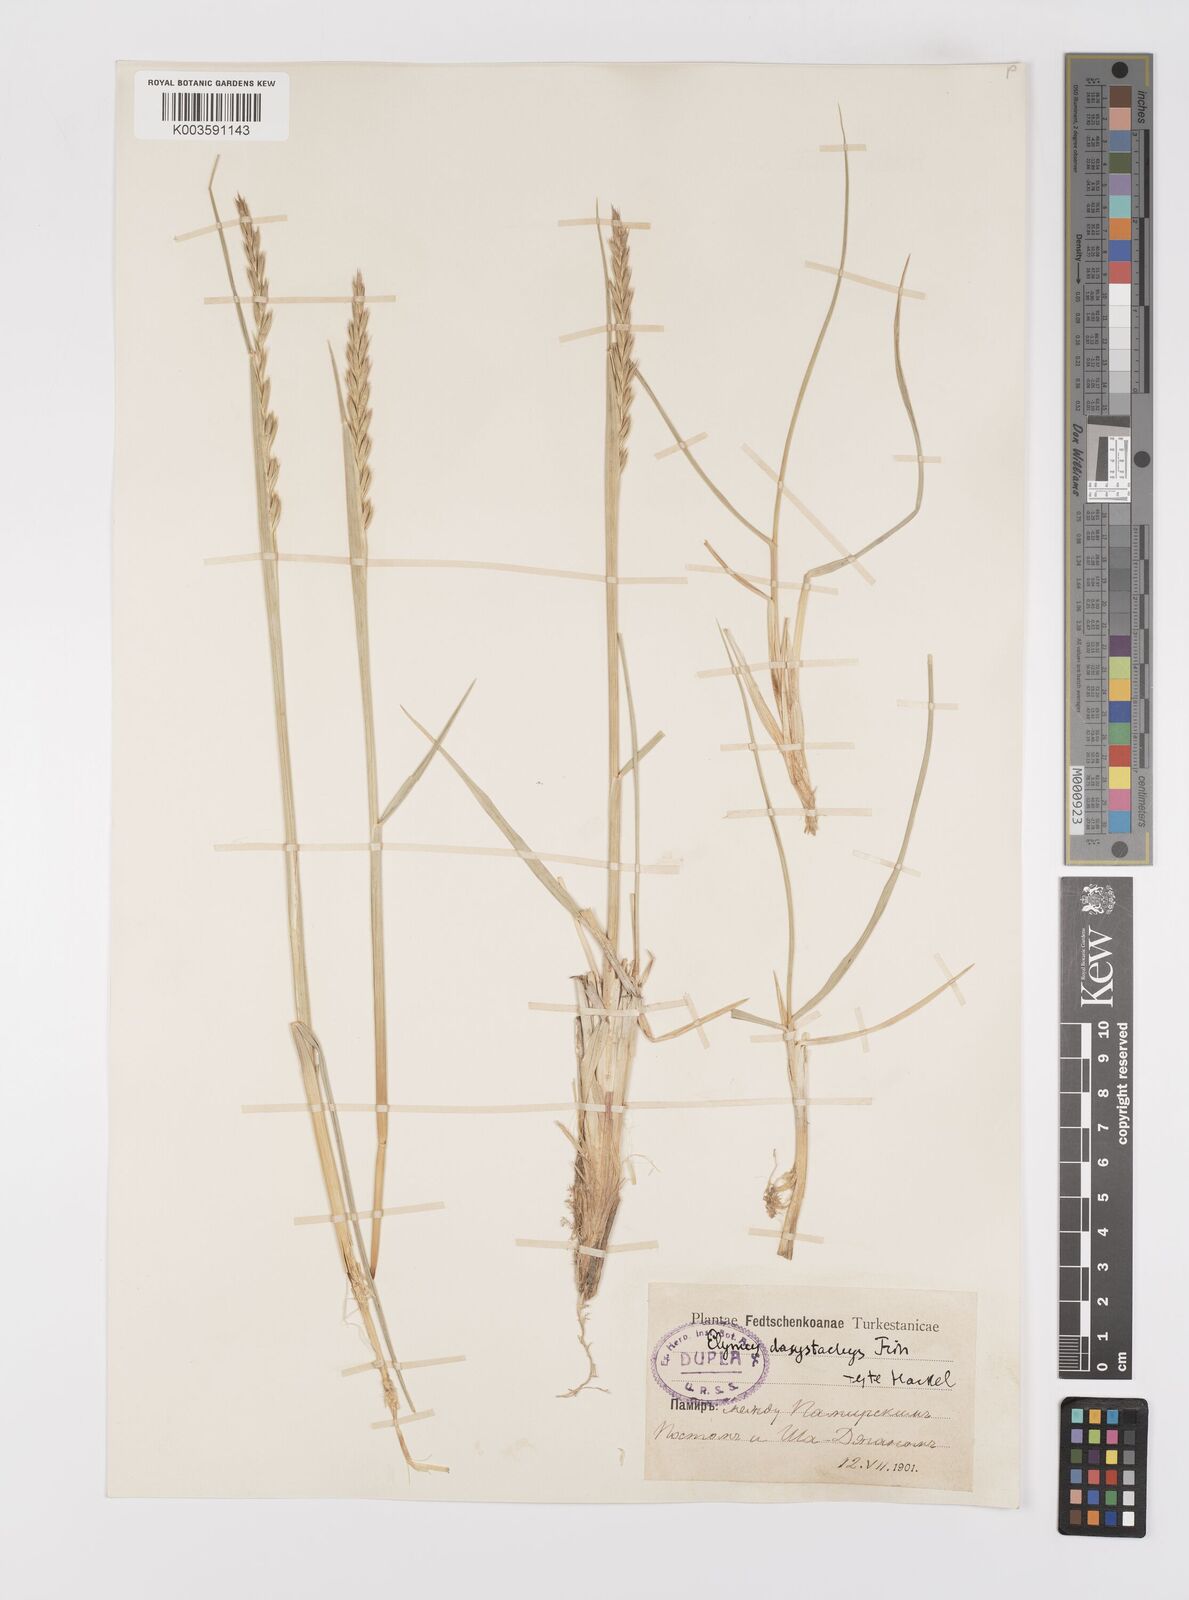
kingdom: Plantae
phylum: Tracheophyta
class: Liliopsida
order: Poales
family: Poaceae
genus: Leymus
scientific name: Leymus secalinus
